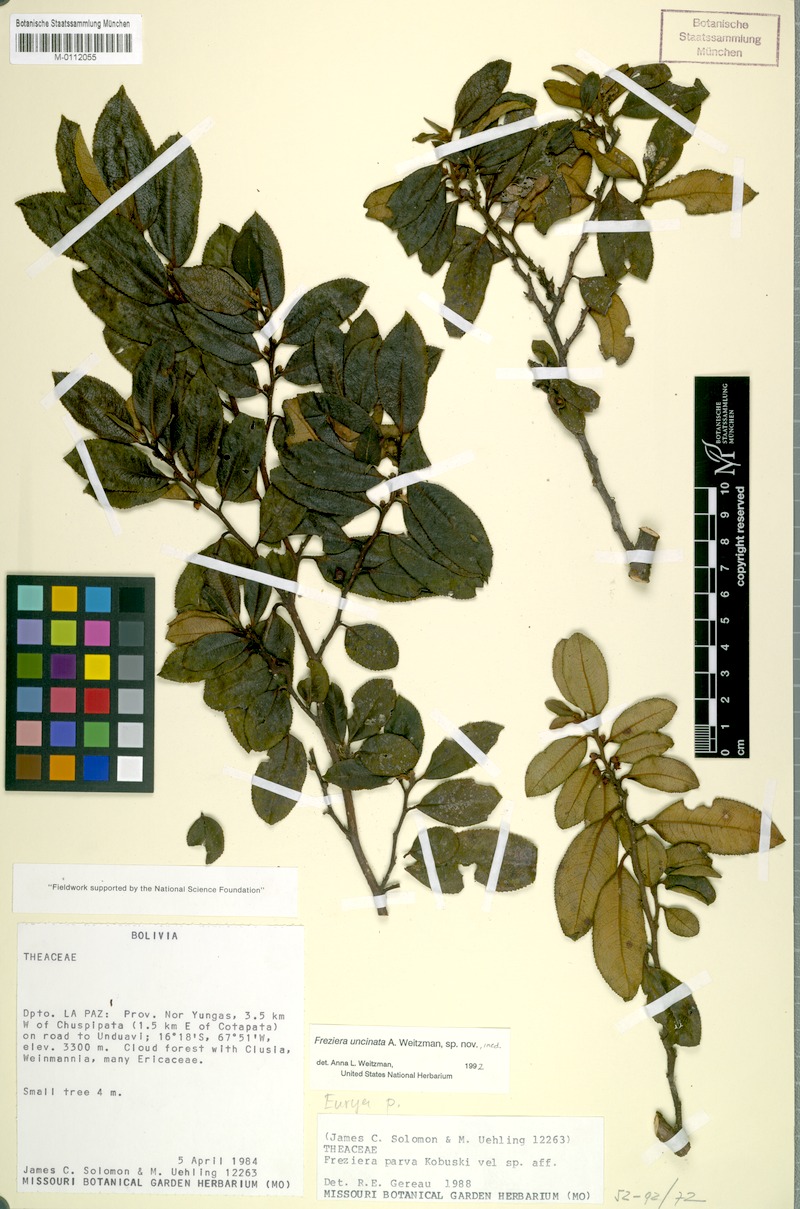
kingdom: Plantae
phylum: Tracheophyta
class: Magnoliopsida
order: Ericales
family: Pentaphylacaceae
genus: Freziera
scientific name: Freziera uncinata
